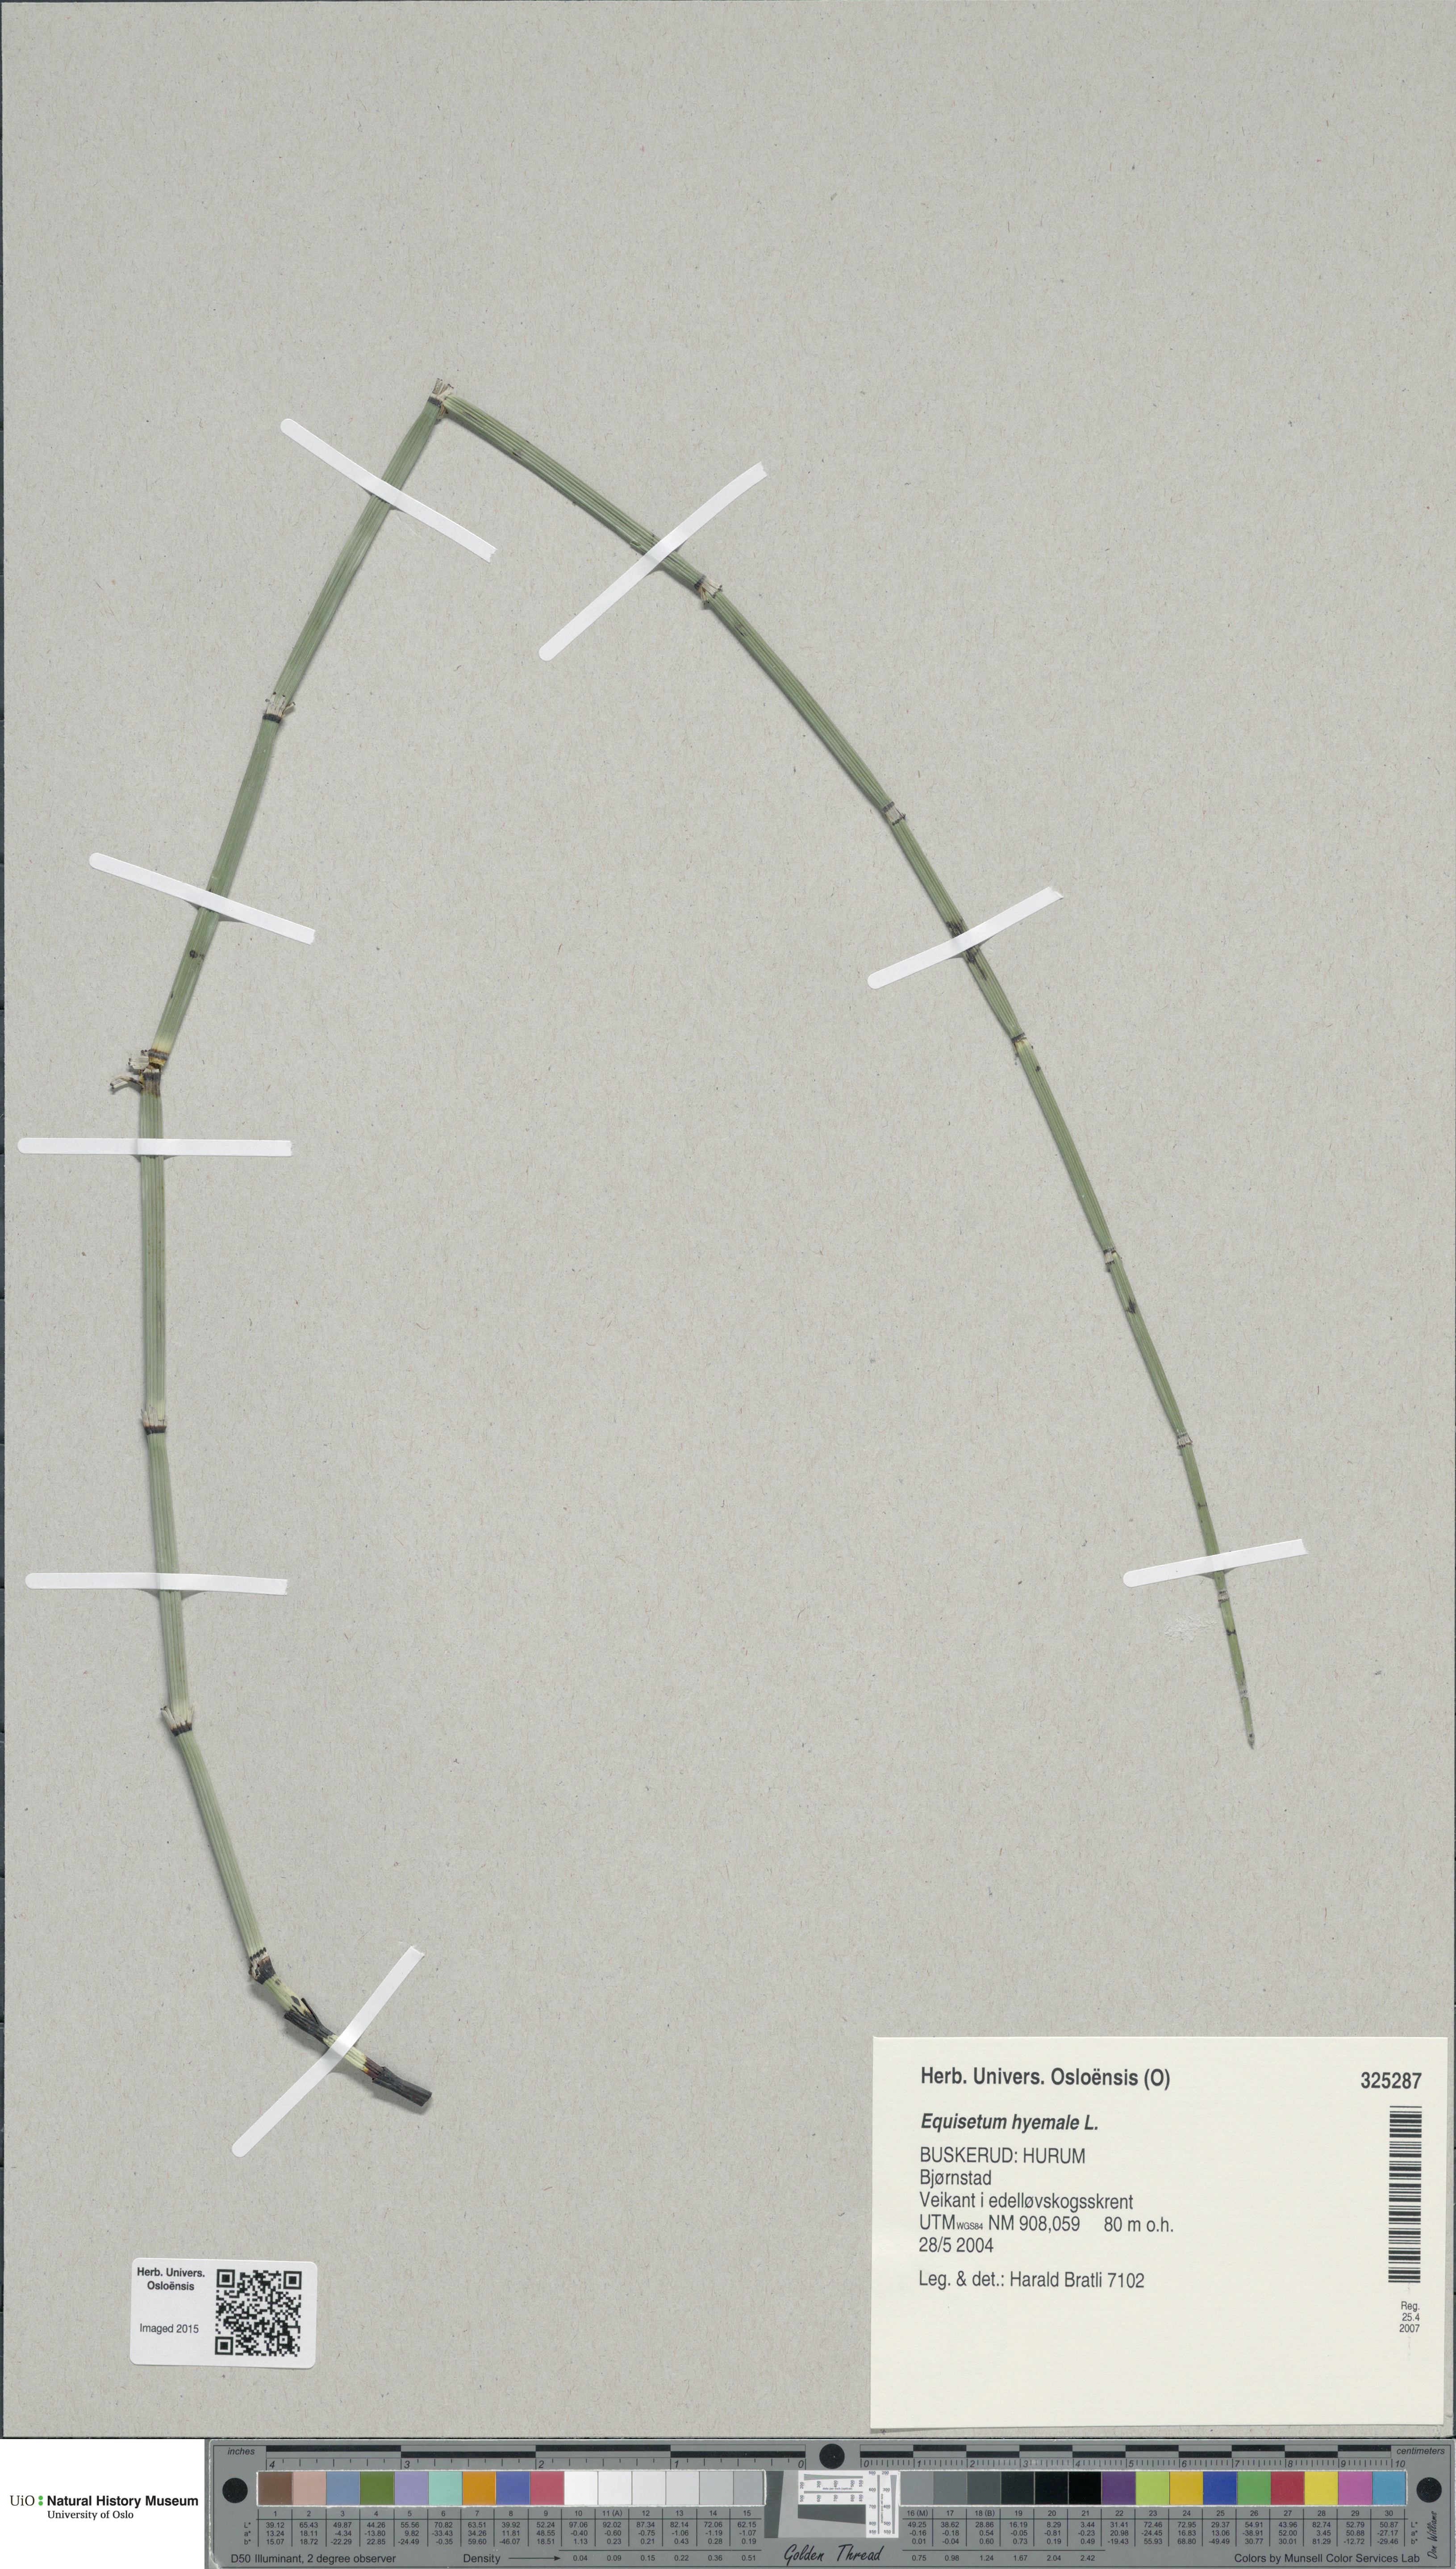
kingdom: Plantae
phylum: Tracheophyta
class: Polypodiopsida
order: Equisetales
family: Equisetaceae
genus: Equisetum
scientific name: Equisetum hyemale
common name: Rough horsetail
